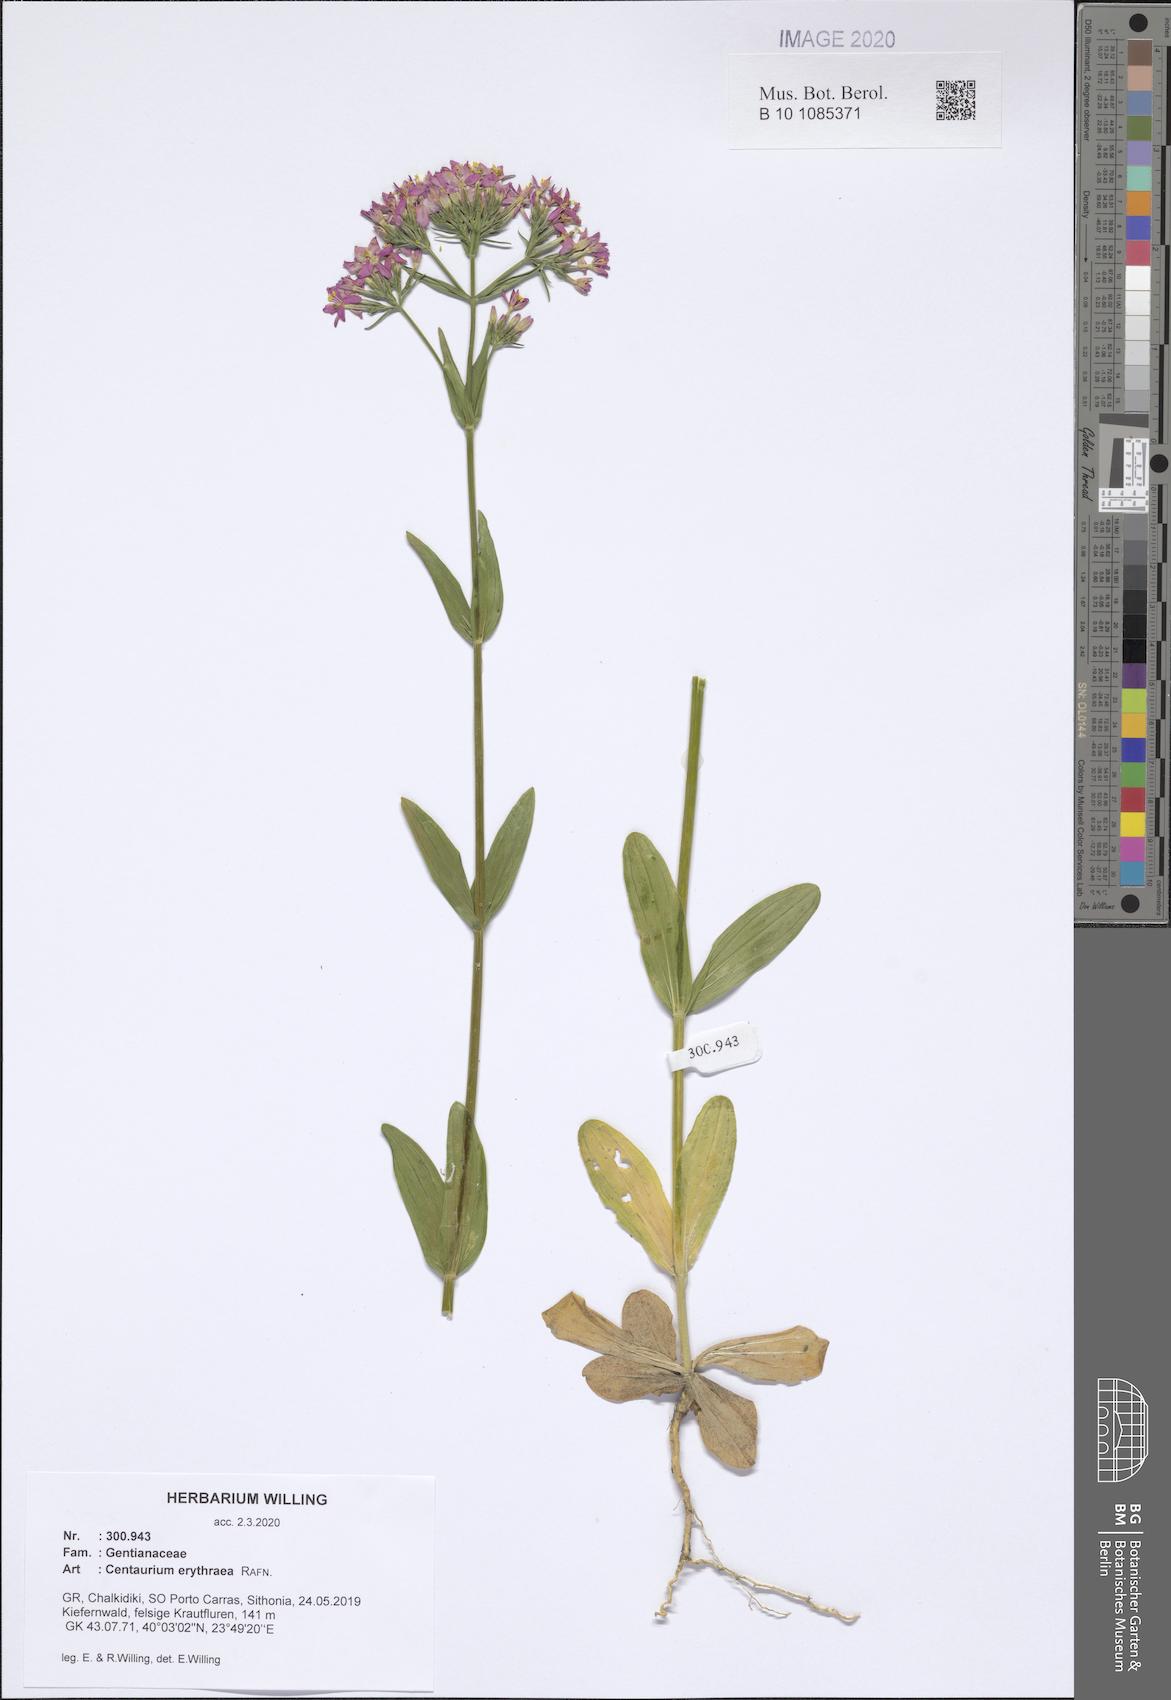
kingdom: Plantae
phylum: Tracheophyta
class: Magnoliopsida
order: Gentianales
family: Gentianaceae
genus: Centaurium
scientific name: Centaurium erythraea
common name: Common centaury
